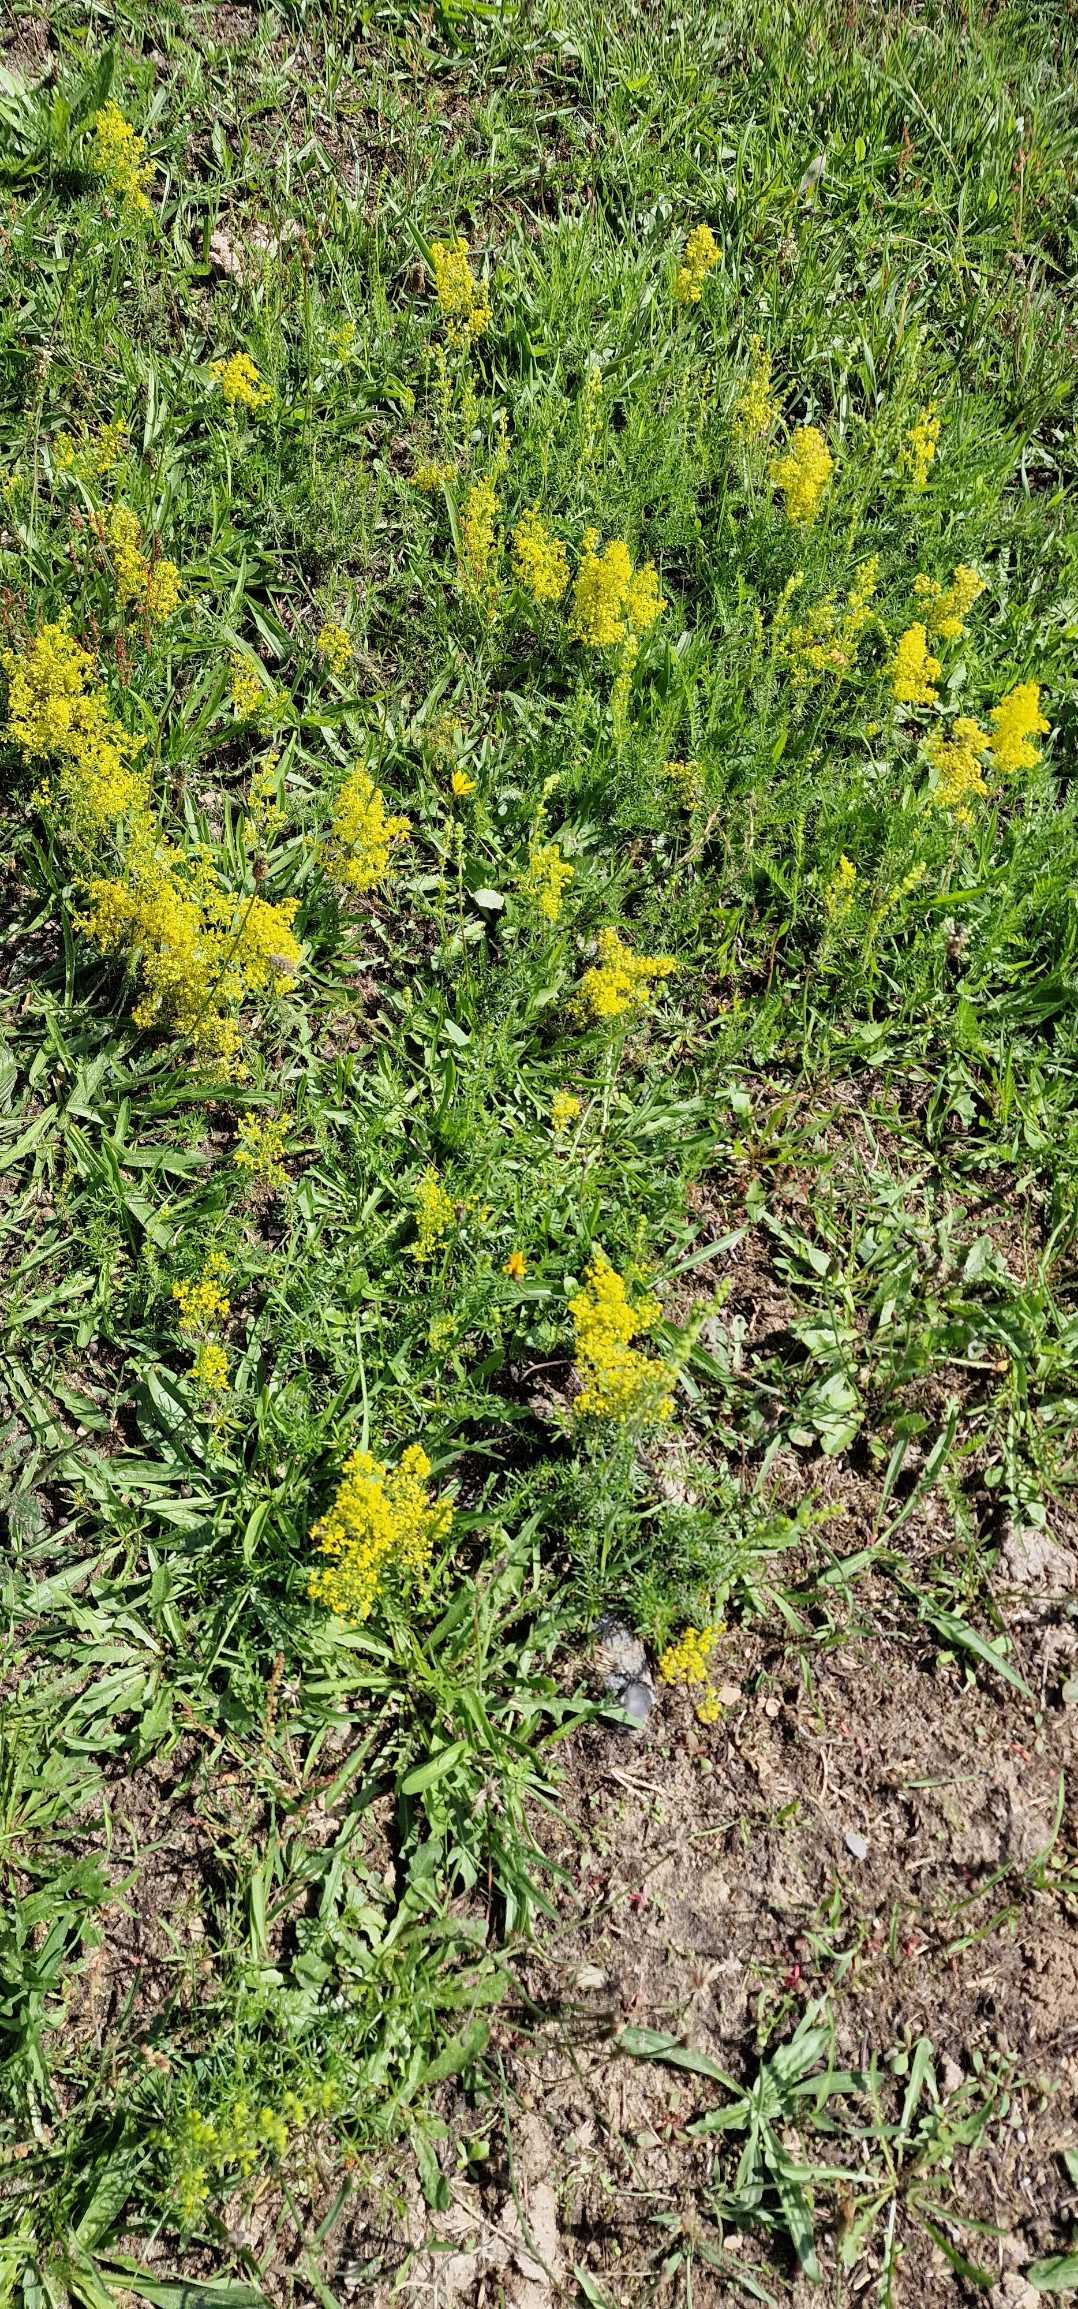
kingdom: Plantae
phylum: Tracheophyta
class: Magnoliopsida
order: Gentianales
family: Rubiaceae
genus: Galium
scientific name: Galium verum
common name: Gul snerre
